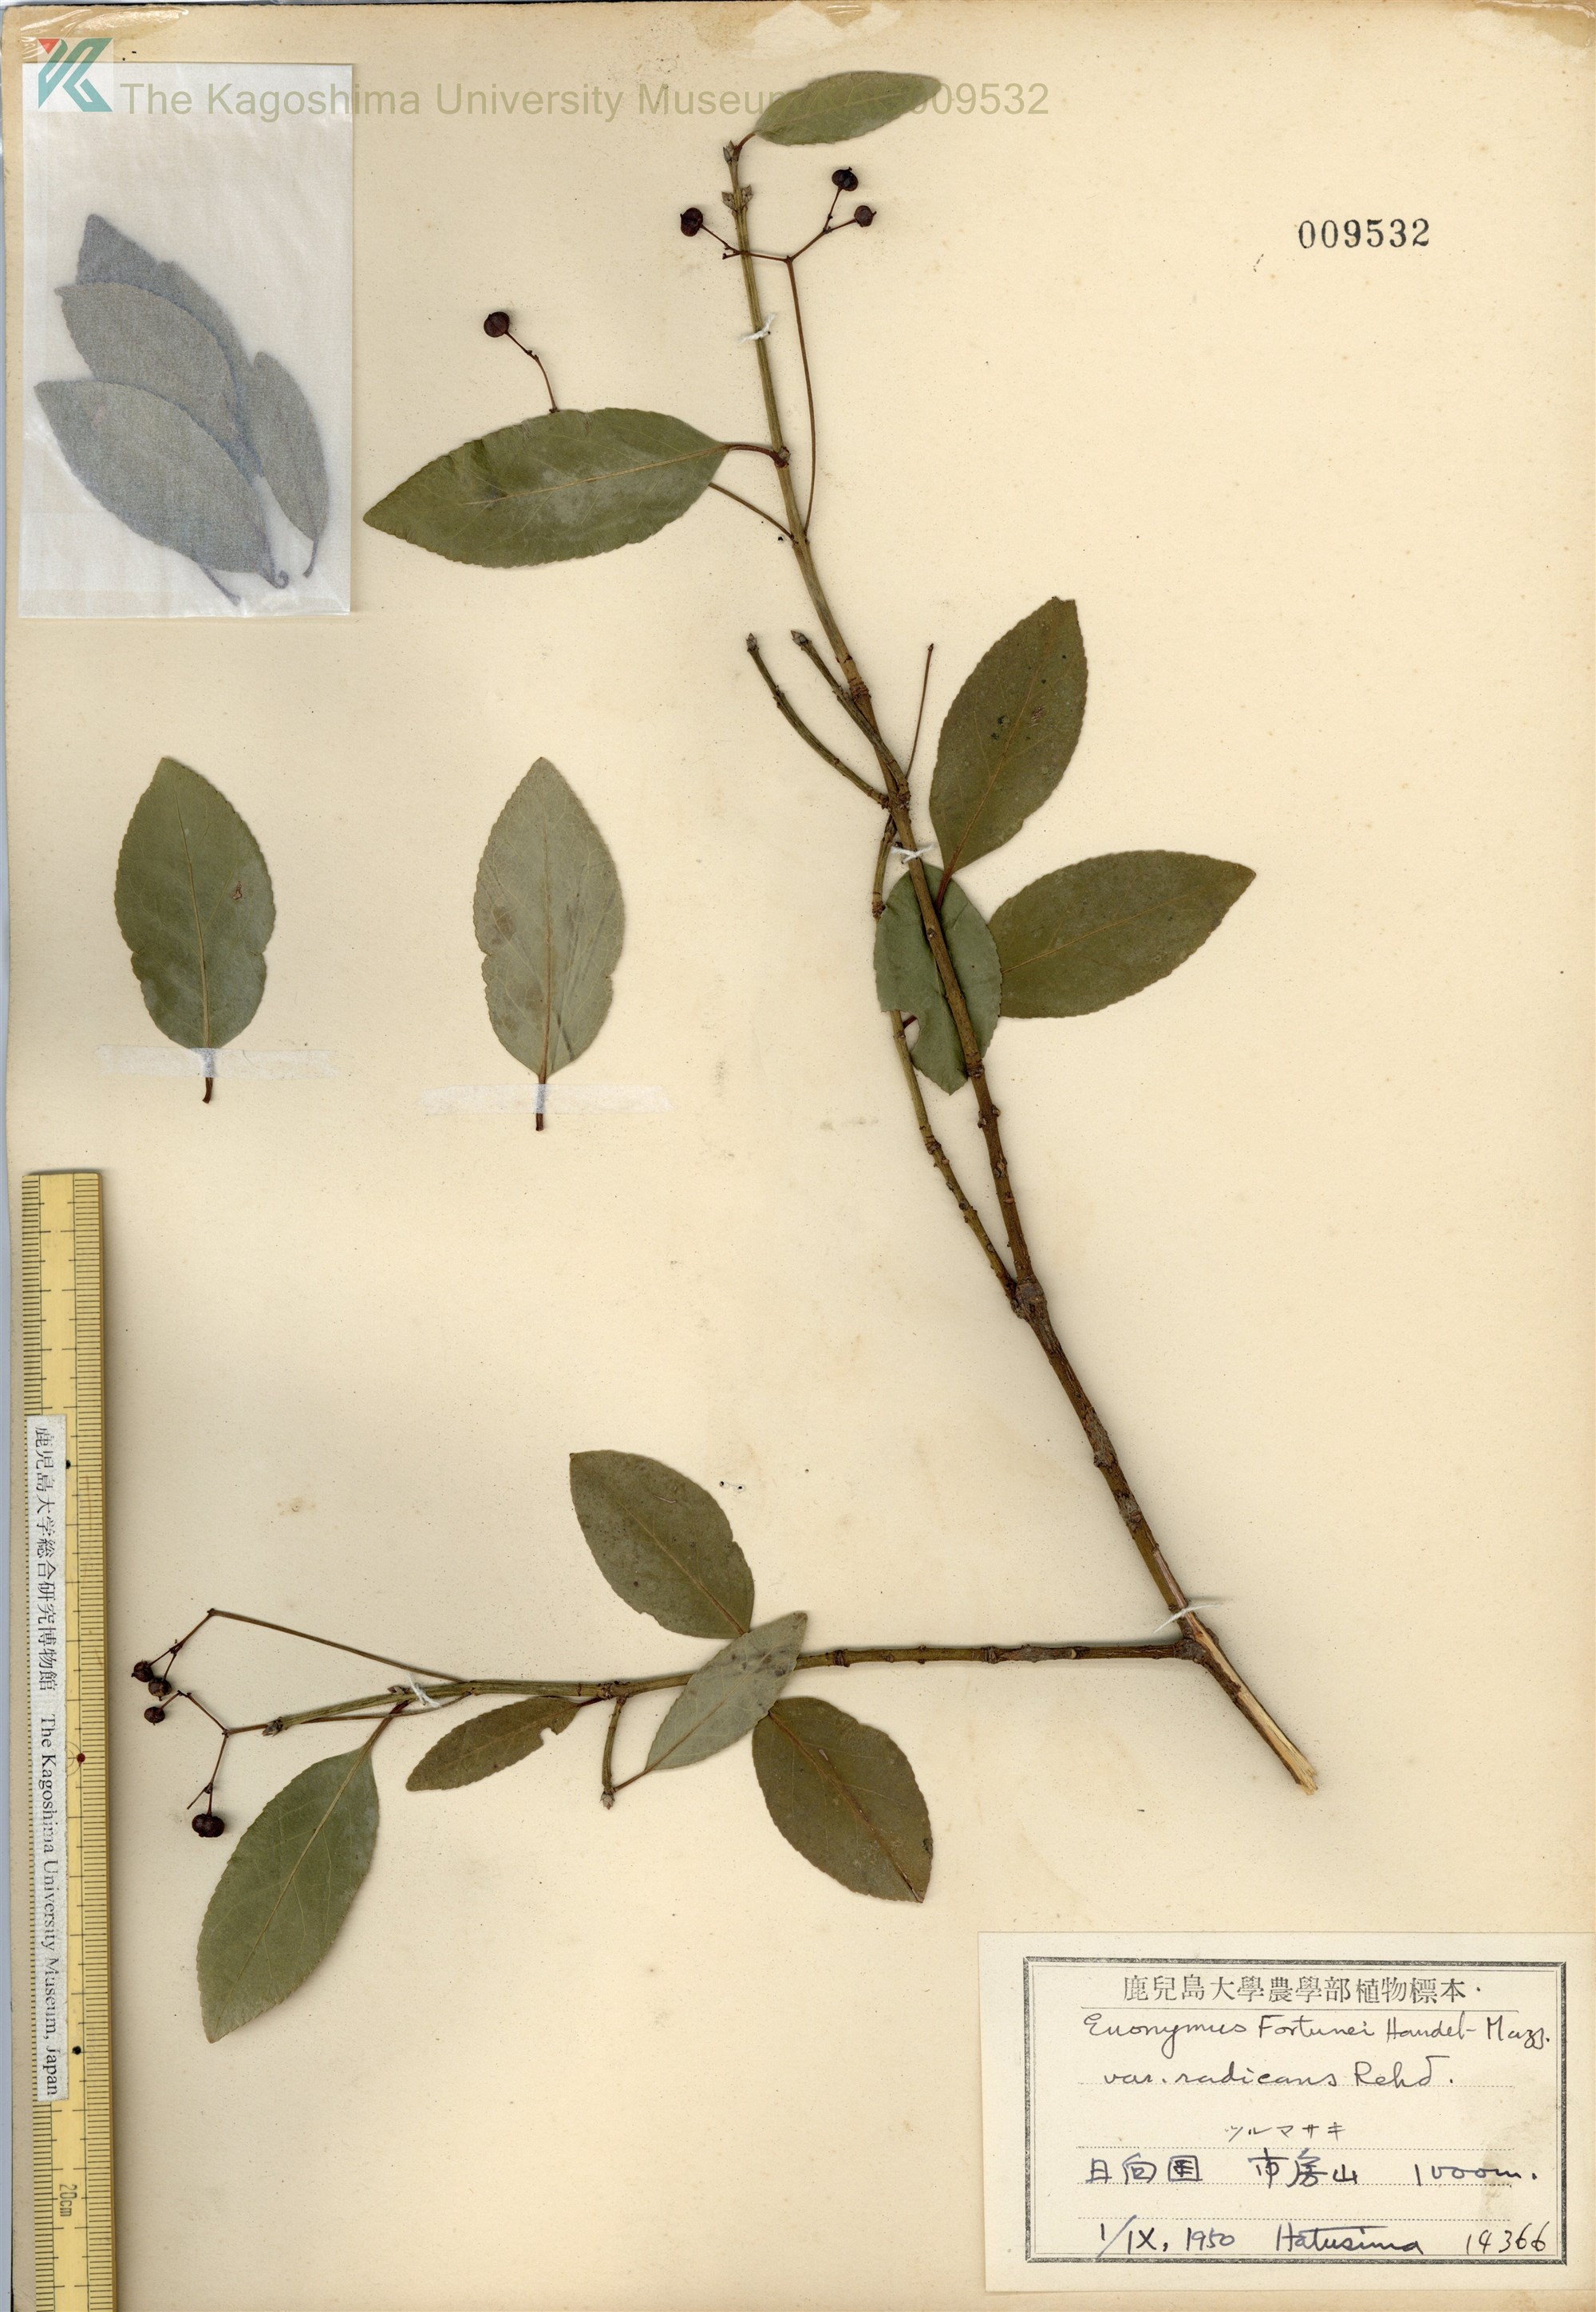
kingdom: Plantae
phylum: Tracheophyta
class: Magnoliopsida
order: Celastrales
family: Celastraceae
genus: Euonymus
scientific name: Euonymus fortunei
